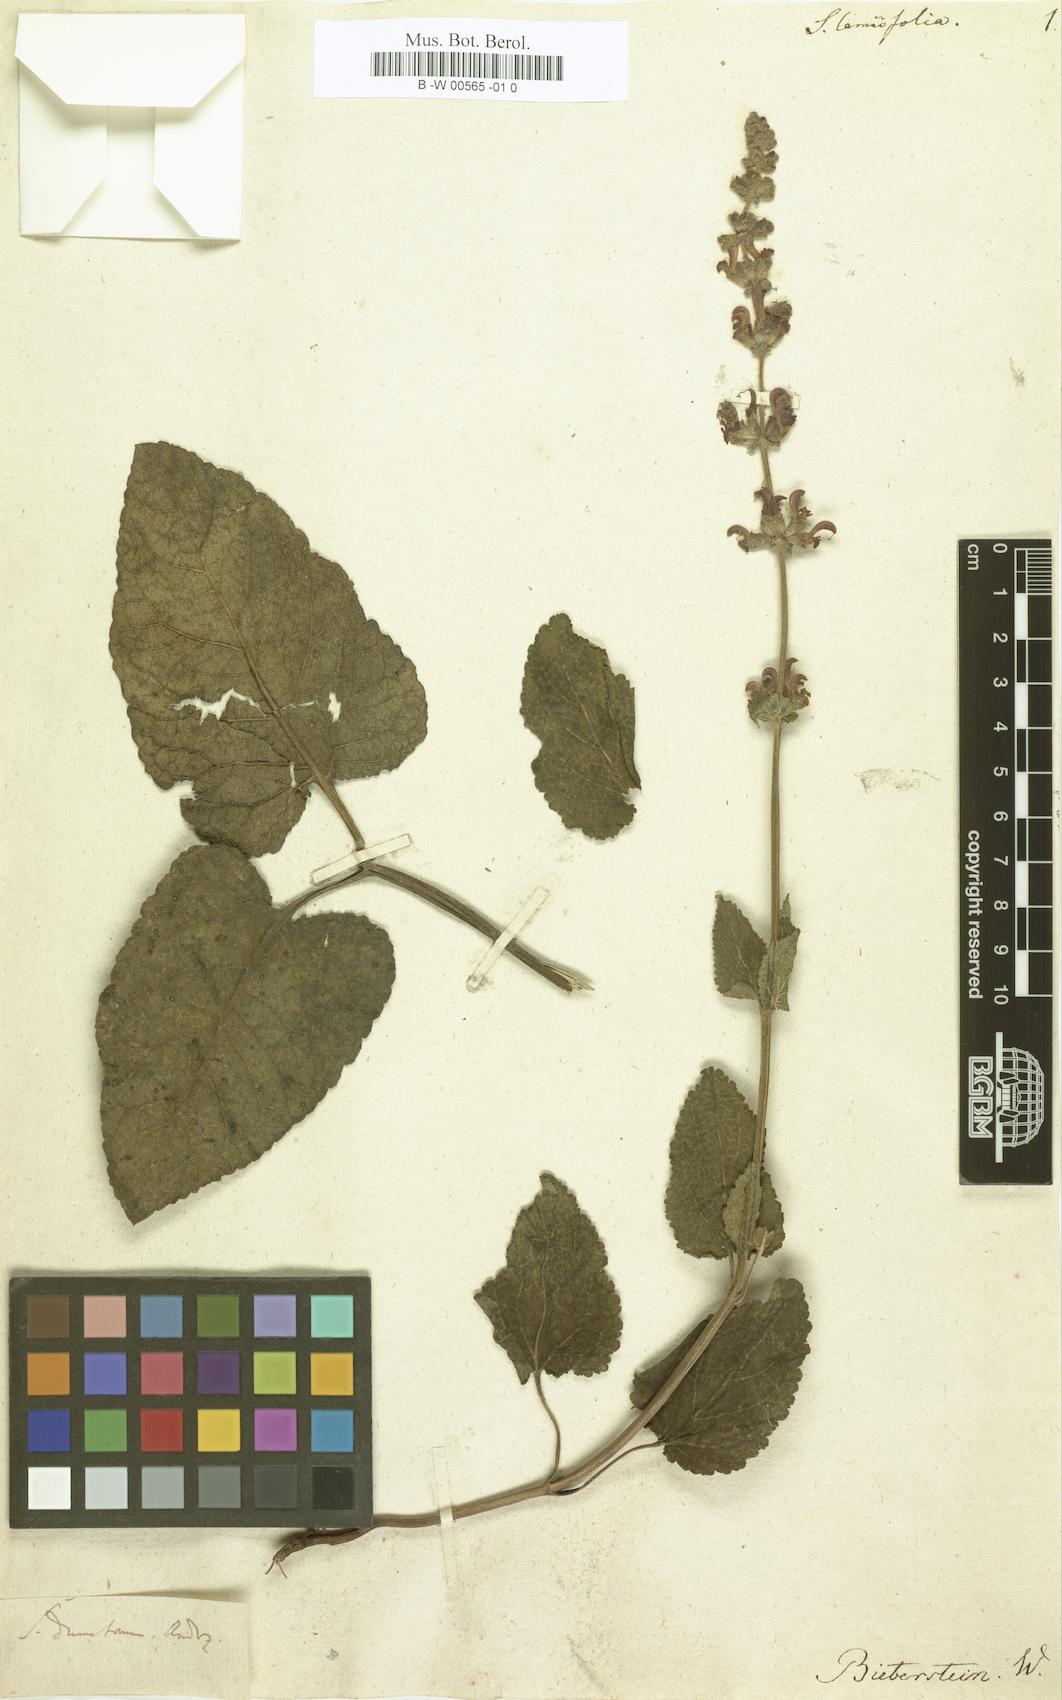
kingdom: Plantae
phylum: Tracheophyta
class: Magnoliopsida
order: Lamiales
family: Lamiaceae
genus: Salvia
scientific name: Salvia lamiifolia
